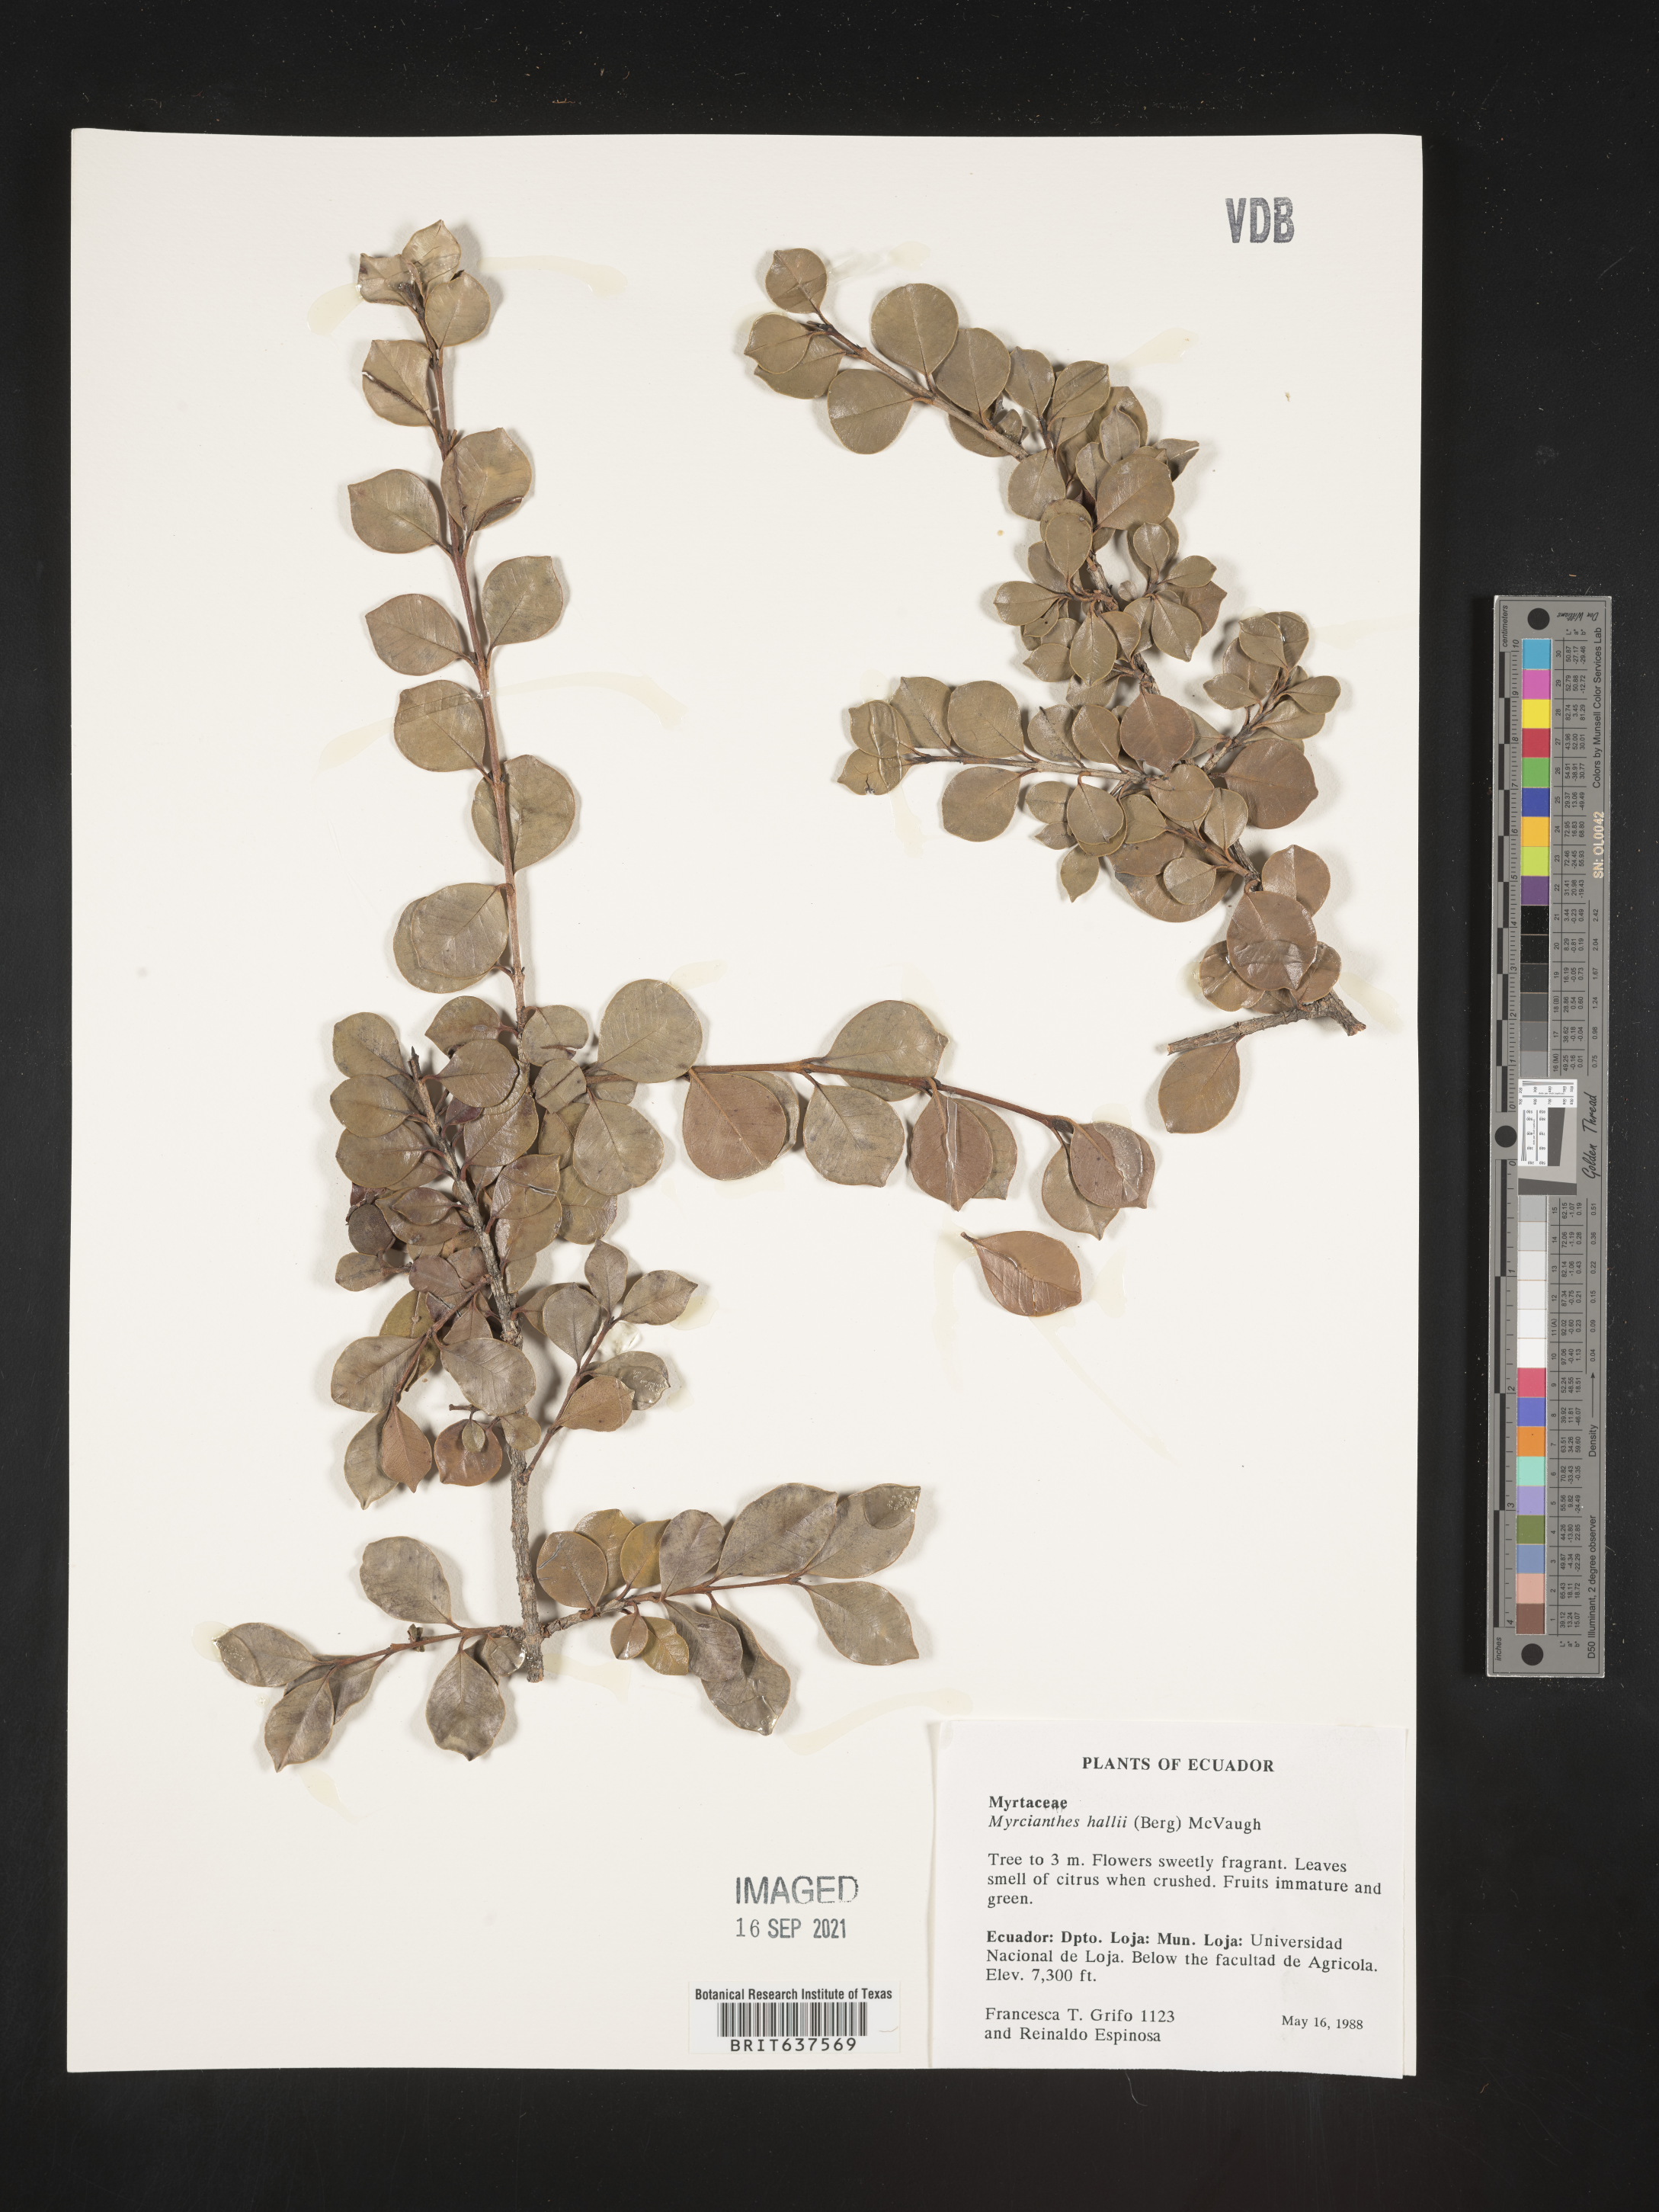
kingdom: Plantae
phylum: Tracheophyta
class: Magnoliopsida
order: Myrtales
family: Myrtaceae
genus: Myrcianthes
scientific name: Myrcianthes
